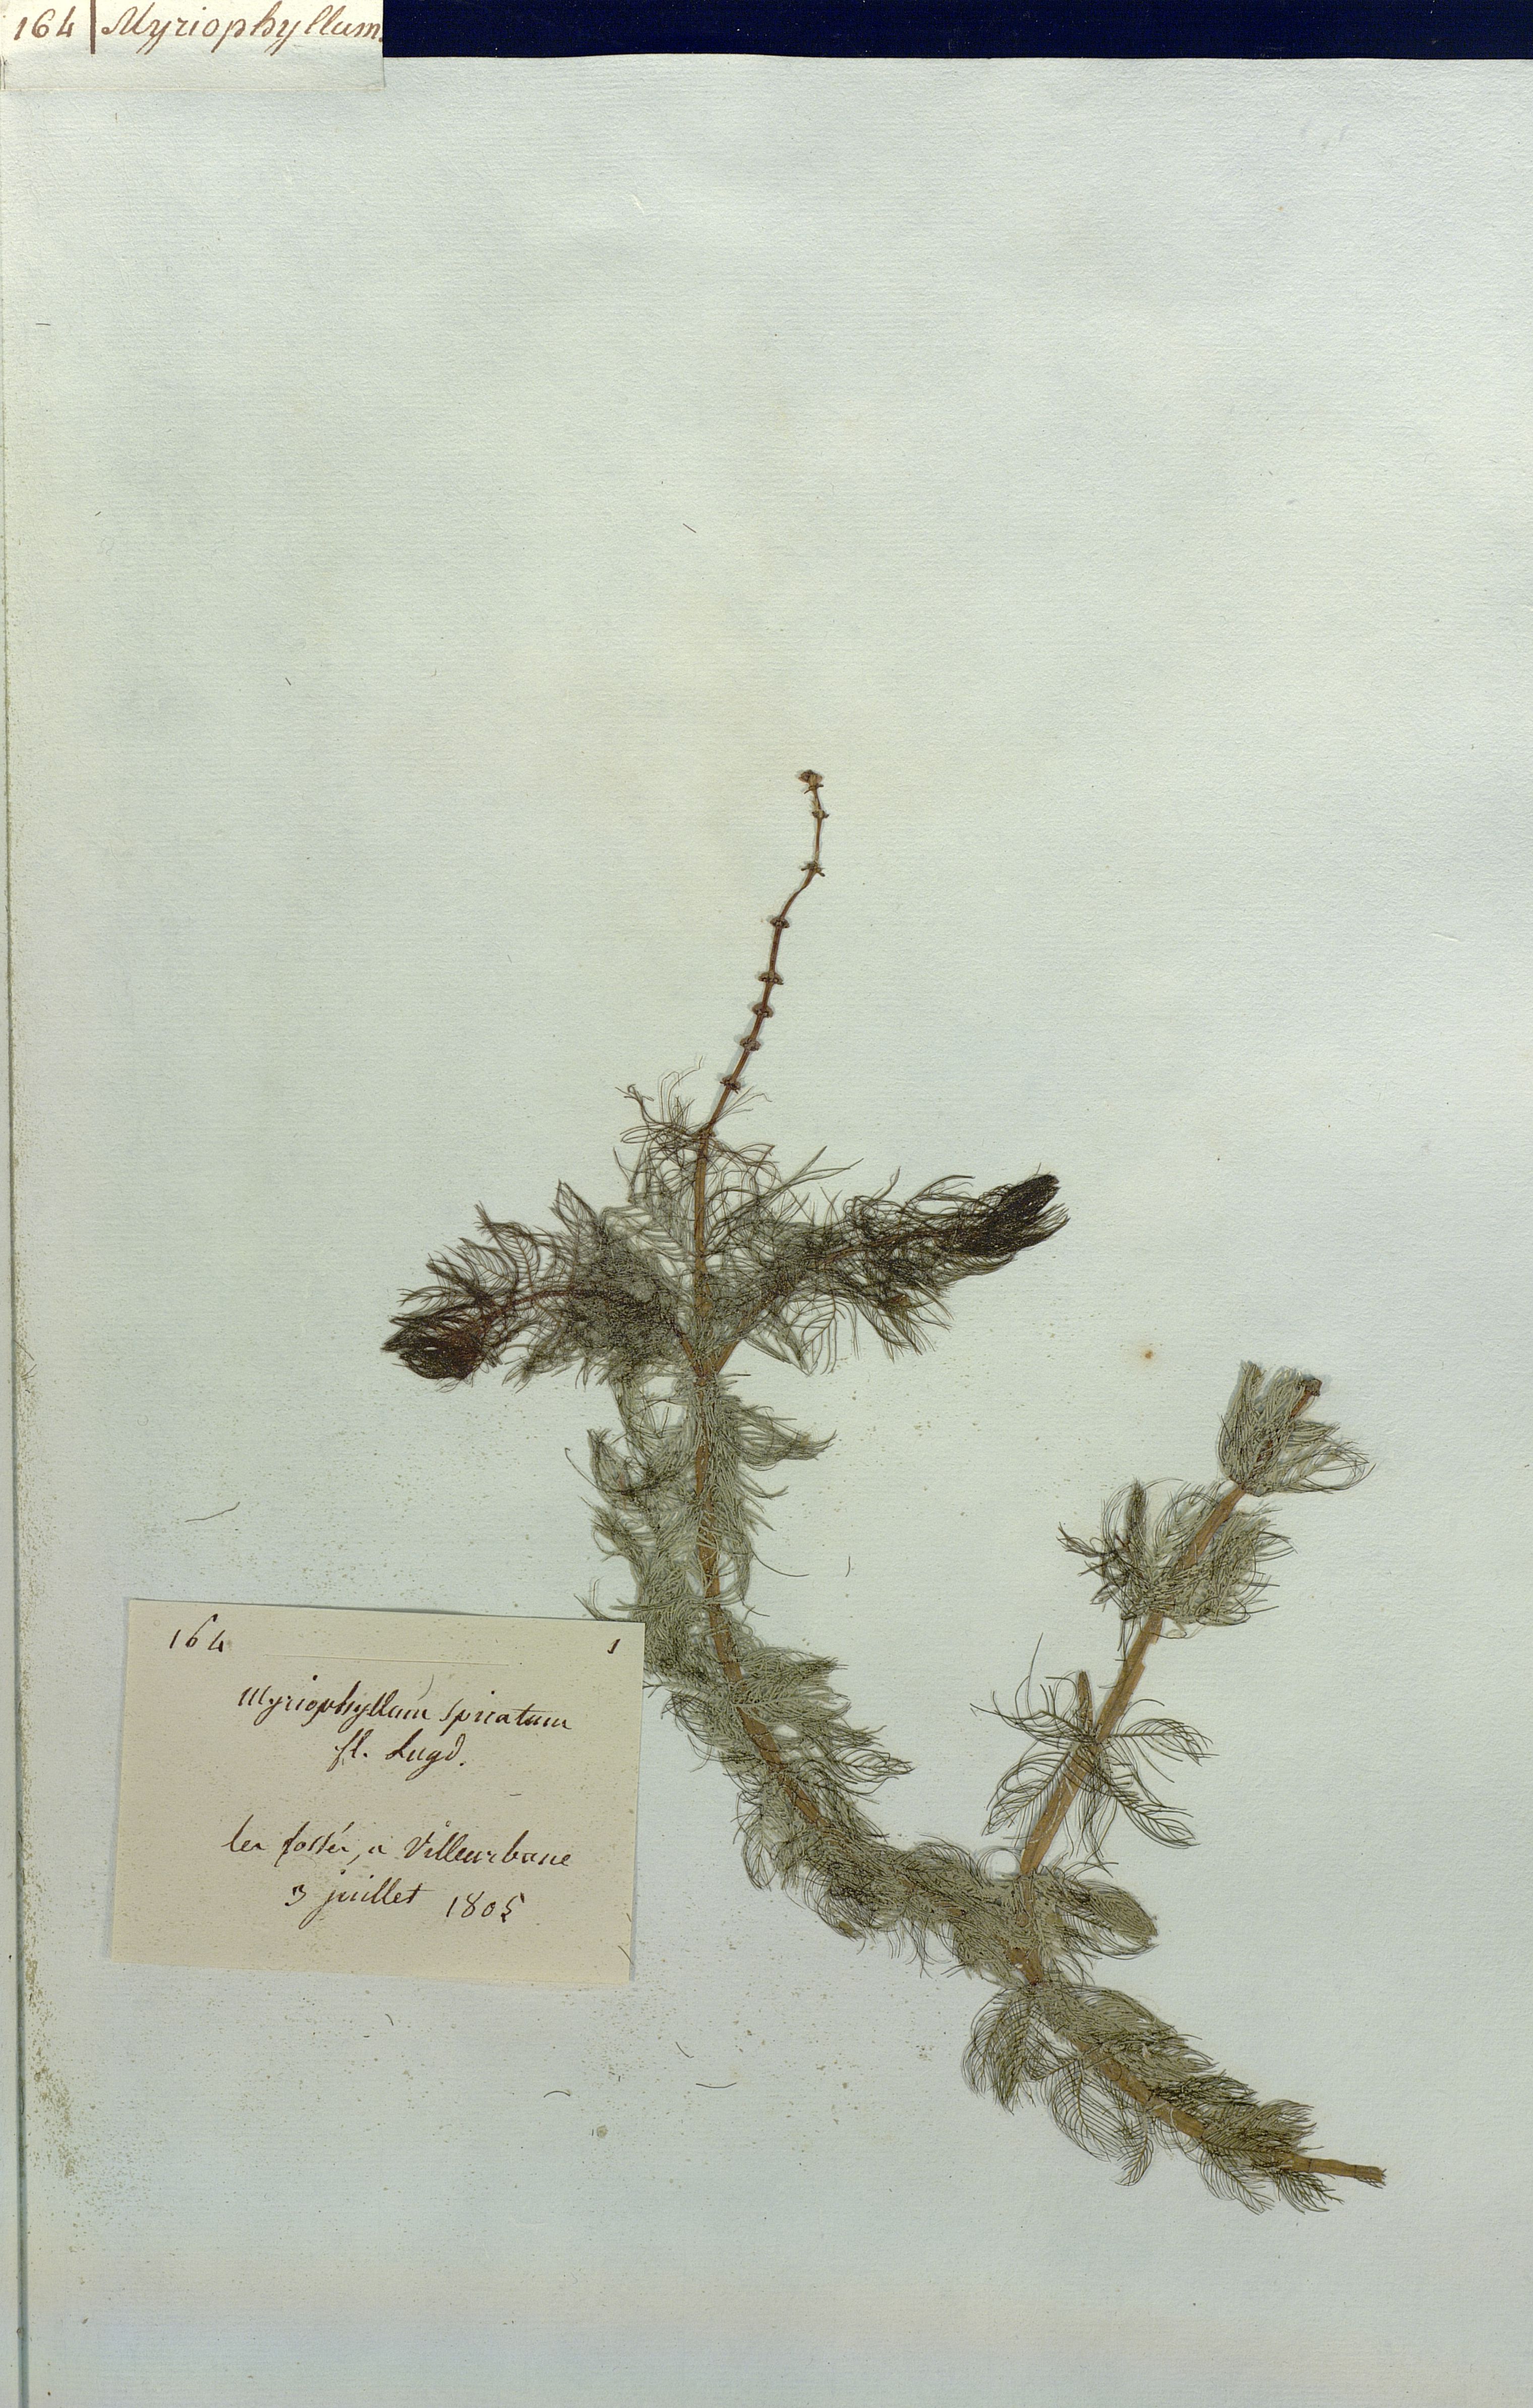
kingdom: Plantae
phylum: Tracheophyta
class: Magnoliopsida
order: Saxifragales
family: Haloragaceae
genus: Myriophyllum
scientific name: Myriophyllum spicatum
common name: Spiked water-milfoil
